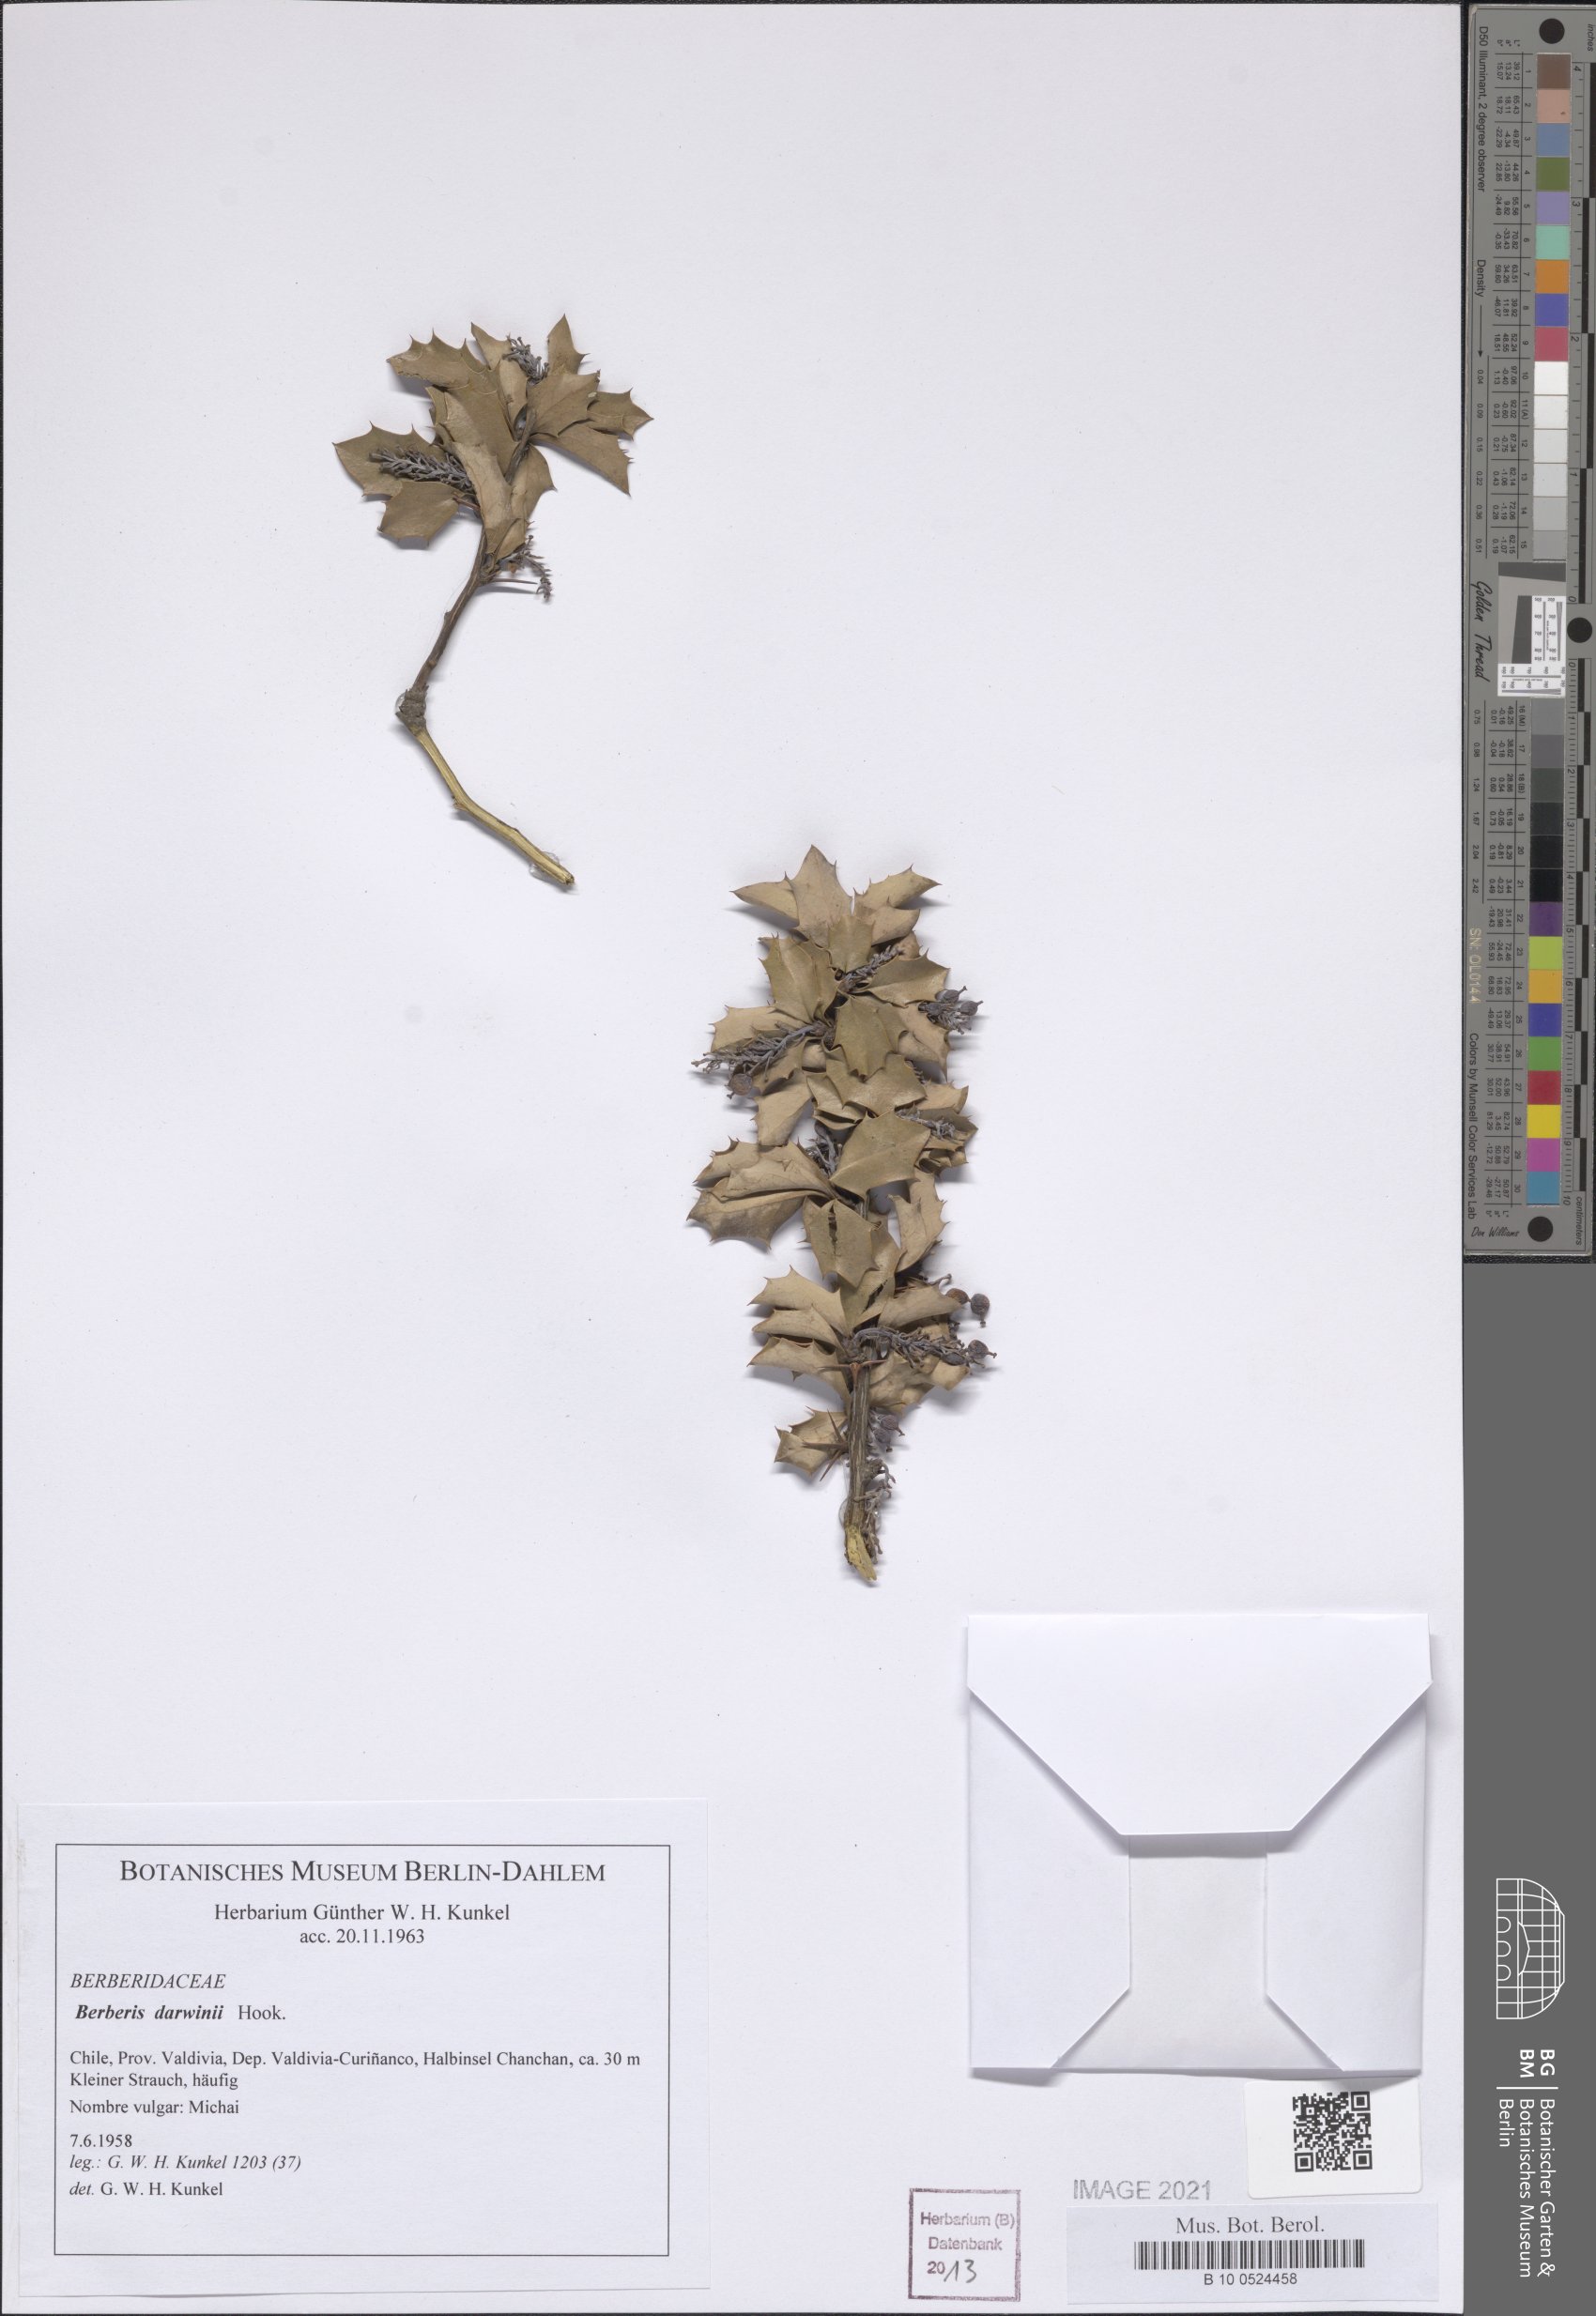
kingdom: Plantae
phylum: Tracheophyta
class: Magnoliopsida
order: Ranunculales
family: Berberidaceae
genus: Berberis
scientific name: Berberis darwinii
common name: Darwin's barberry
